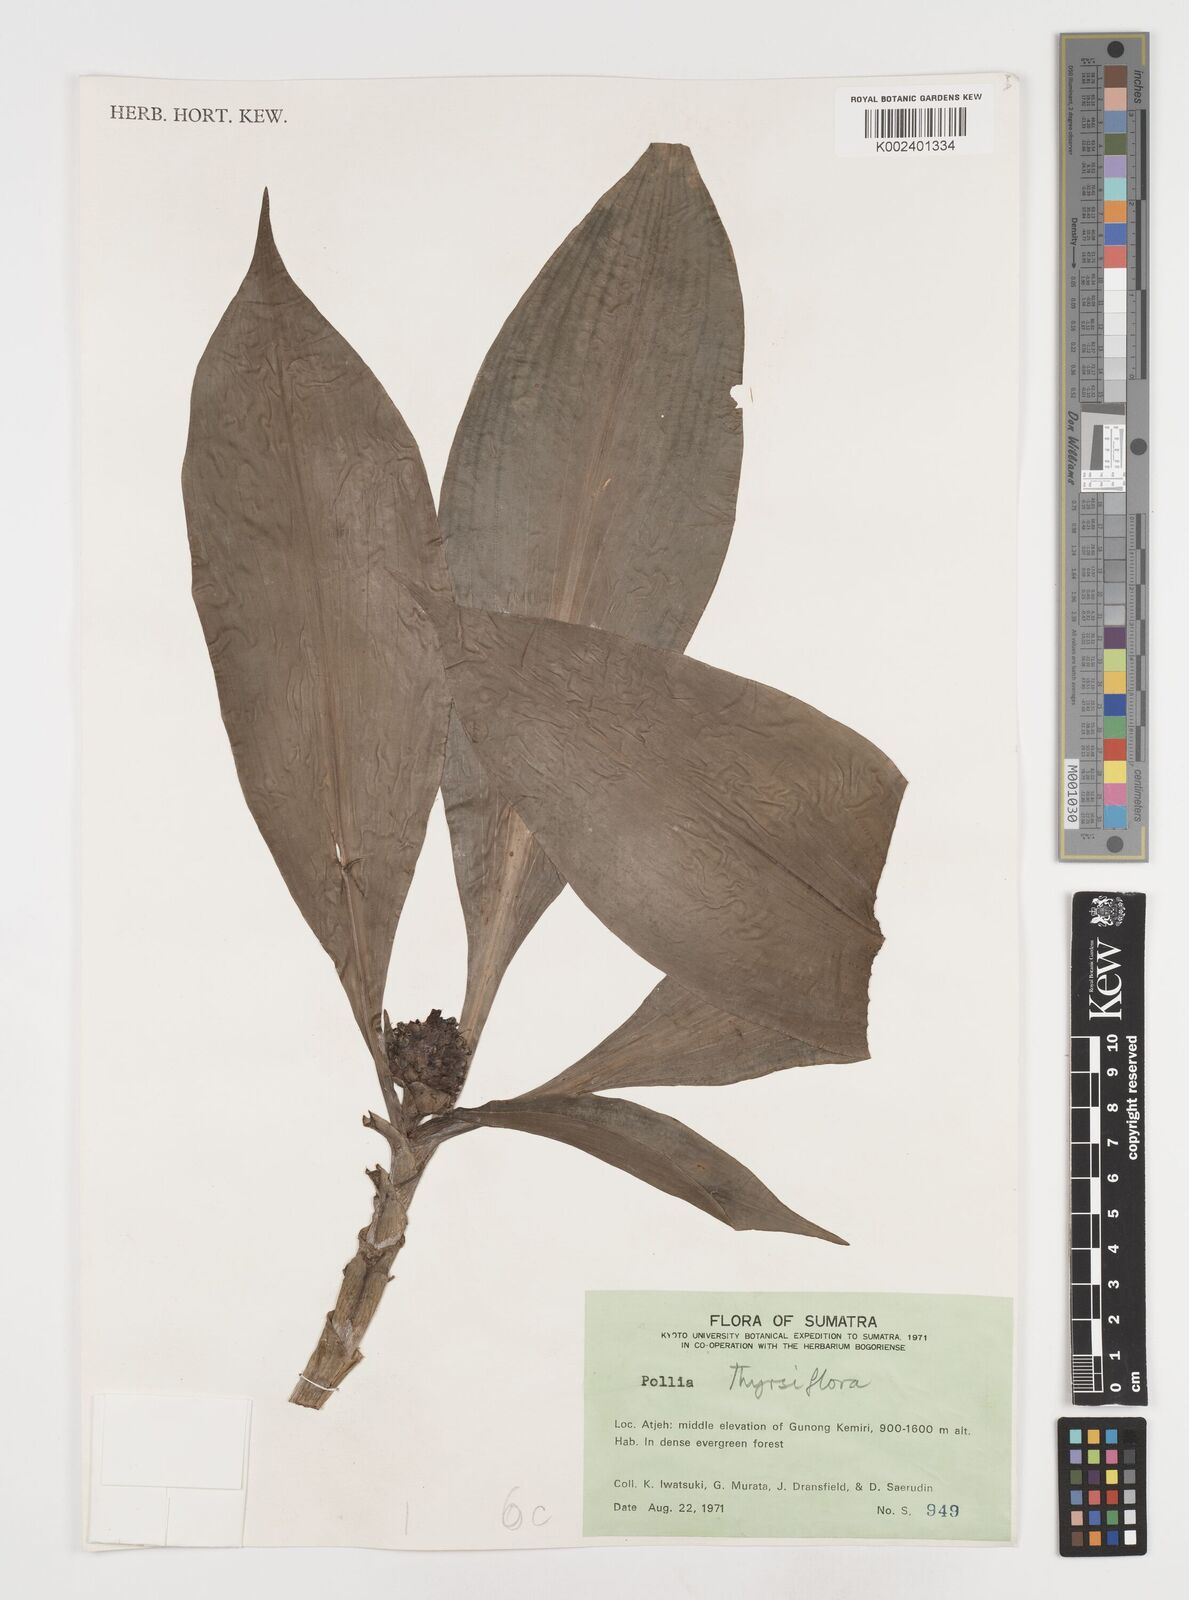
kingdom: Plantae
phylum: Tracheophyta
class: Liliopsida
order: Commelinales
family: Commelinaceae
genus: Pollia
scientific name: Pollia thyrsiflora
